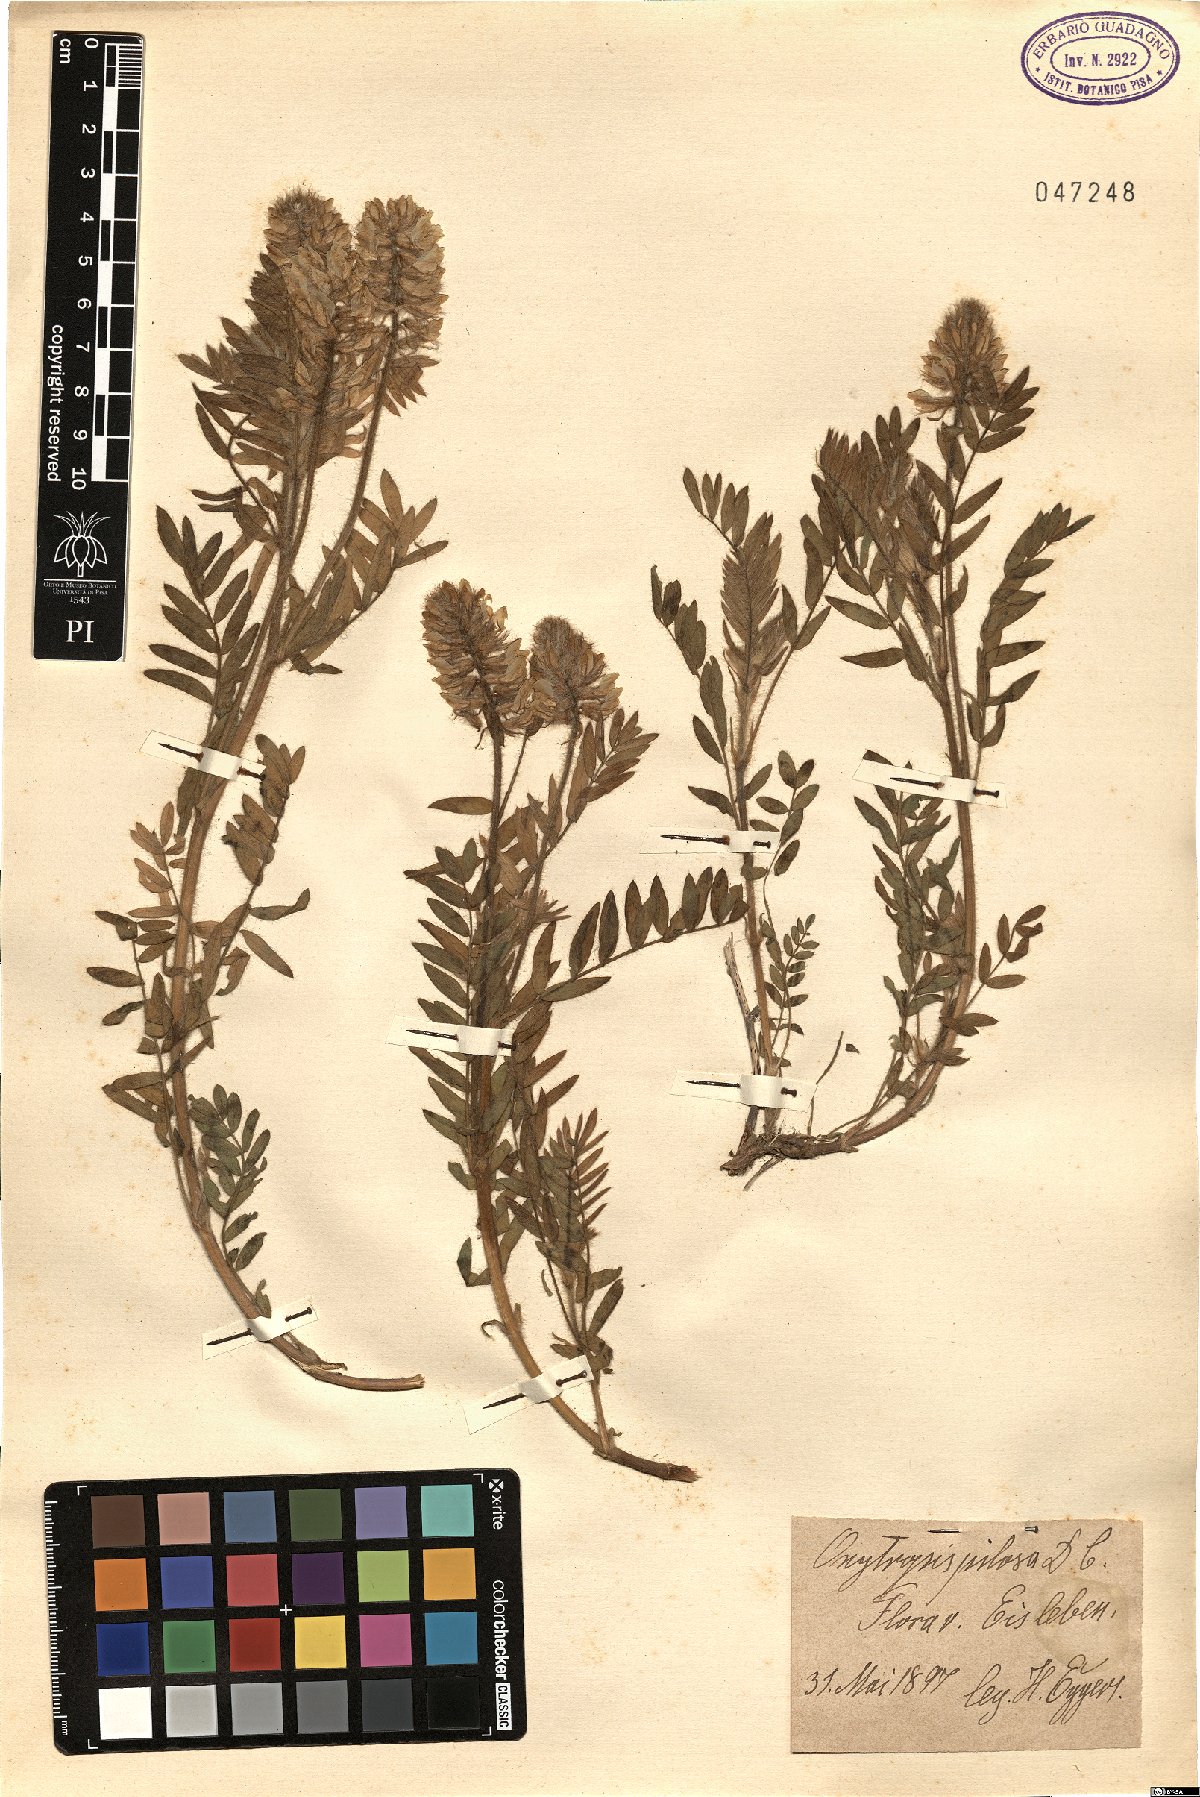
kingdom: Plantae
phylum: Tracheophyta
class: Magnoliopsida
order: Fabales
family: Fabaceae
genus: Oxytropis
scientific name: Oxytropis pilosa
